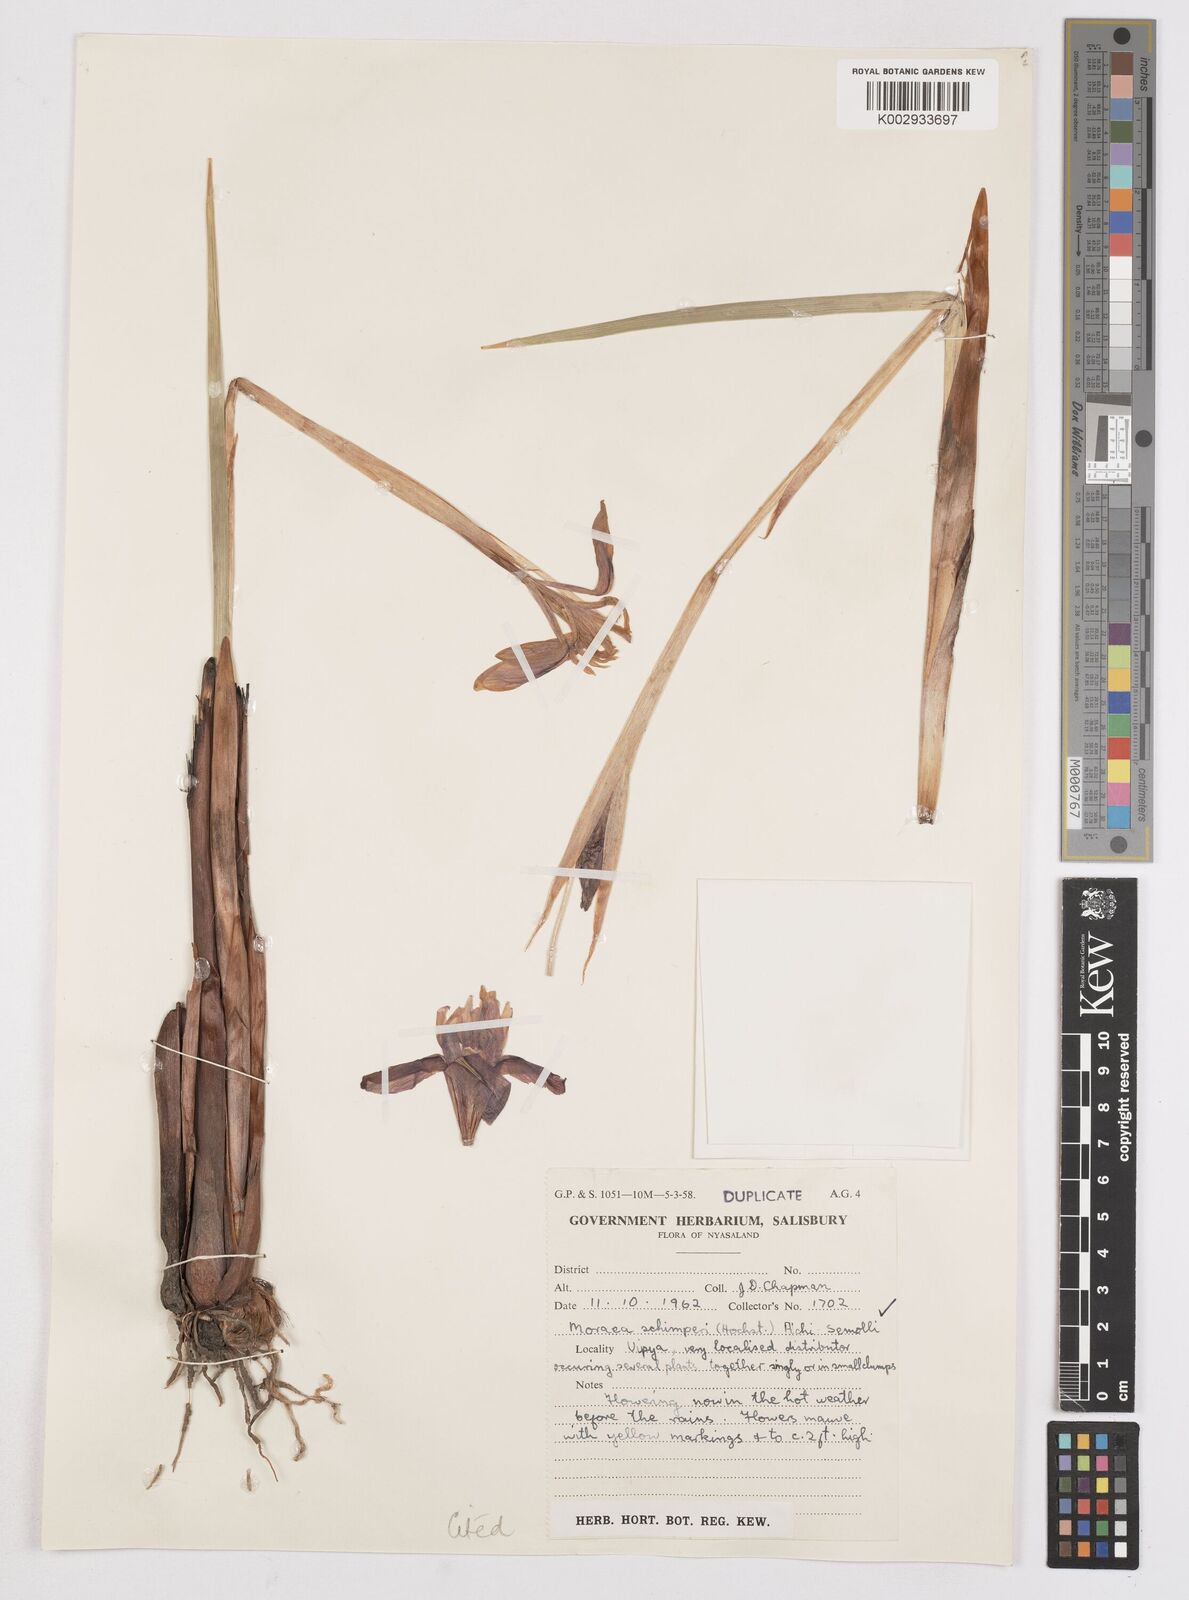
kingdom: Plantae
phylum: Tracheophyta
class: Liliopsida
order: Asparagales
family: Iridaceae
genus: Moraea
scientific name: Moraea schimperi
